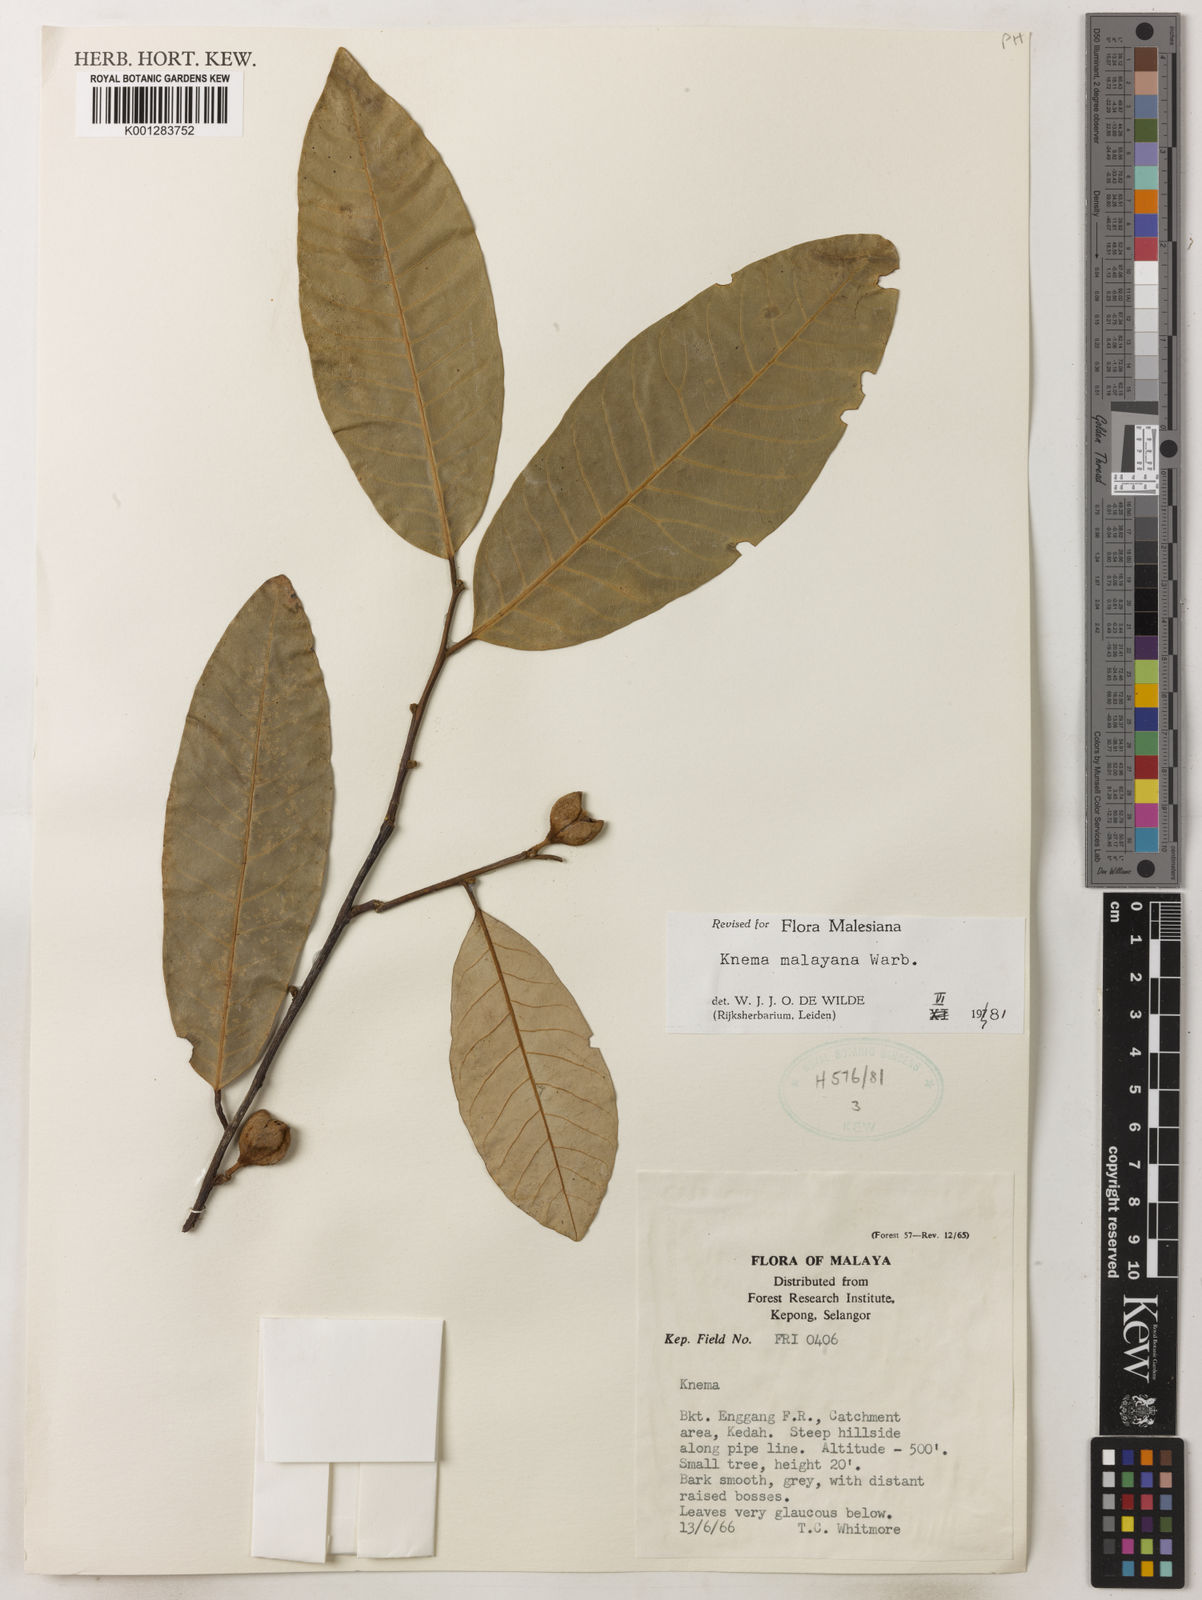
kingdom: Plantae
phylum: Tracheophyta
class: Magnoliopsida
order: Magnoliales
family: Myristicaceae
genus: Knema
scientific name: Knema malayana
